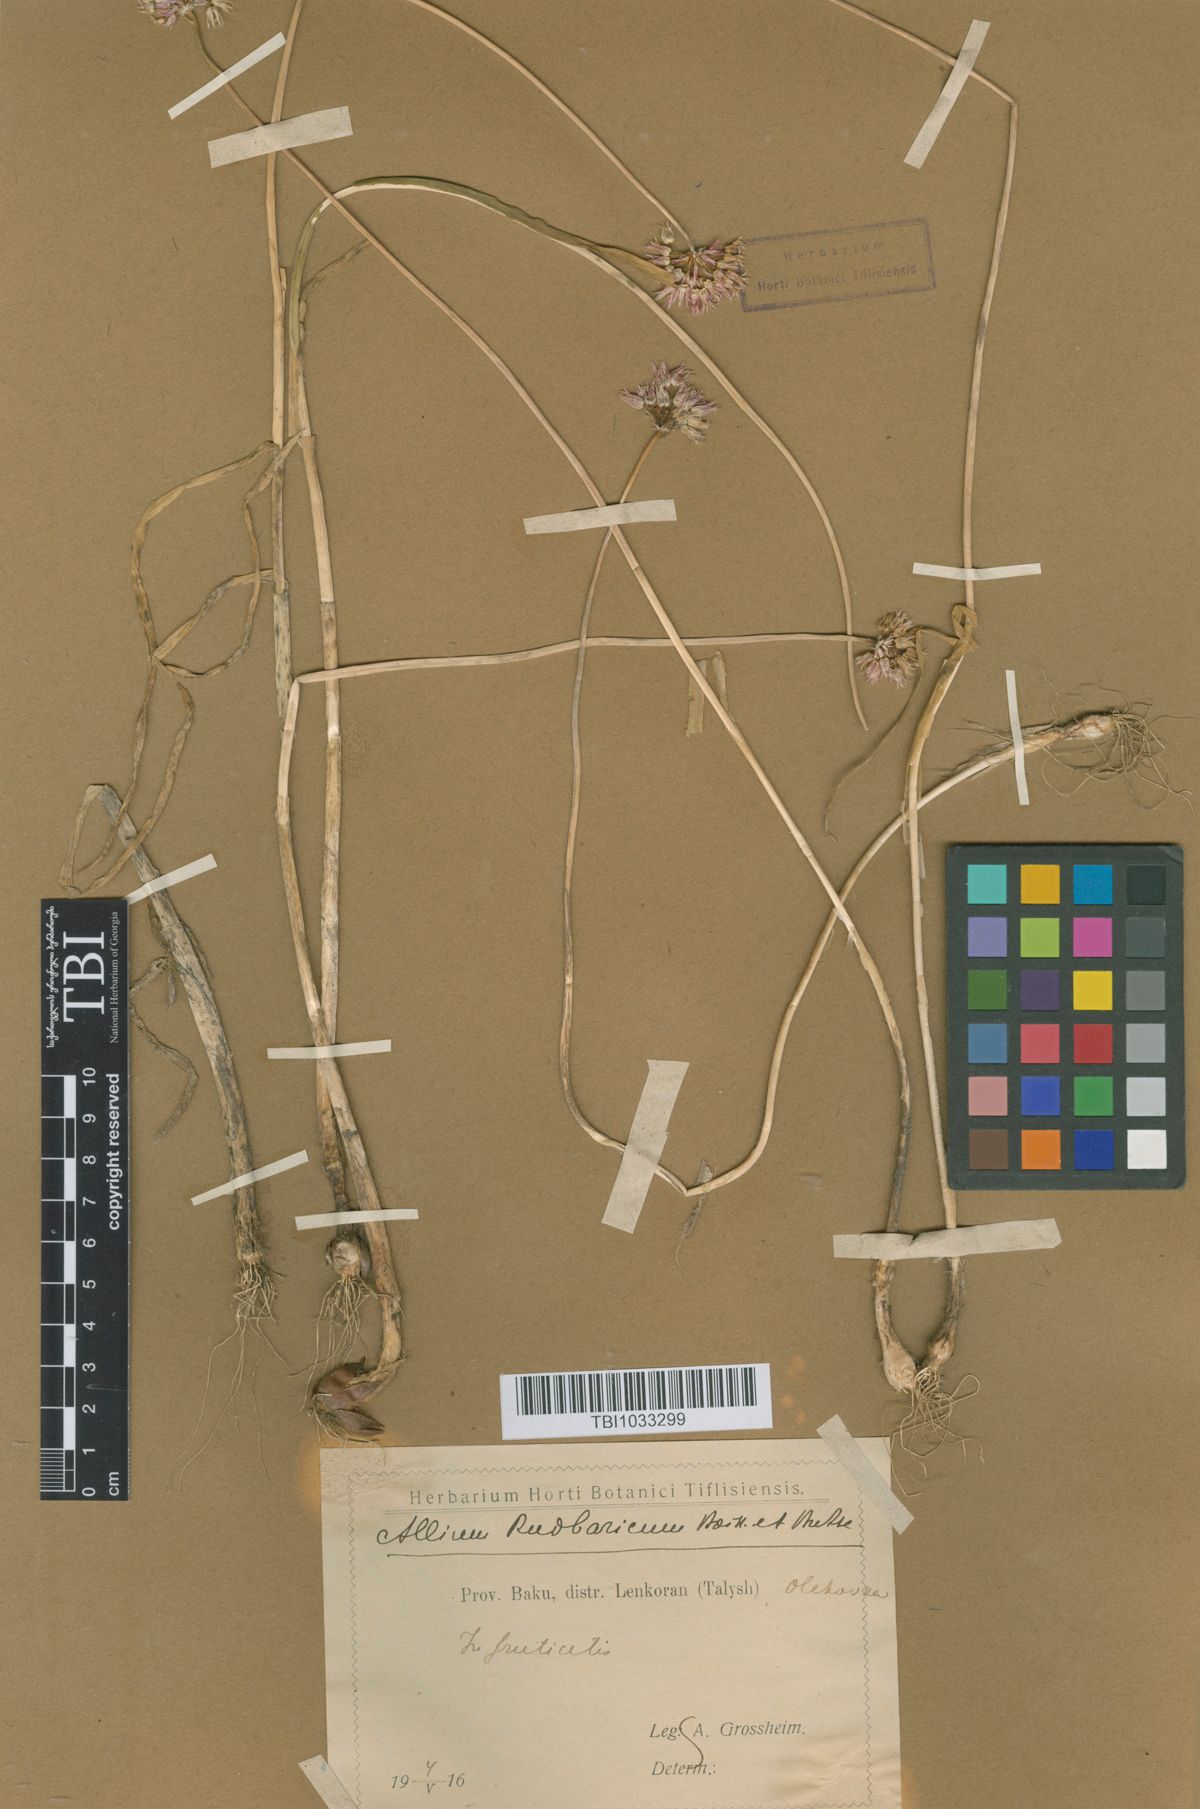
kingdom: Plantae
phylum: Tracheophyta
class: Liliopsida
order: Asparagales
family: Amaryllidaceae
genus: Allium
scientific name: Allium erubescens
